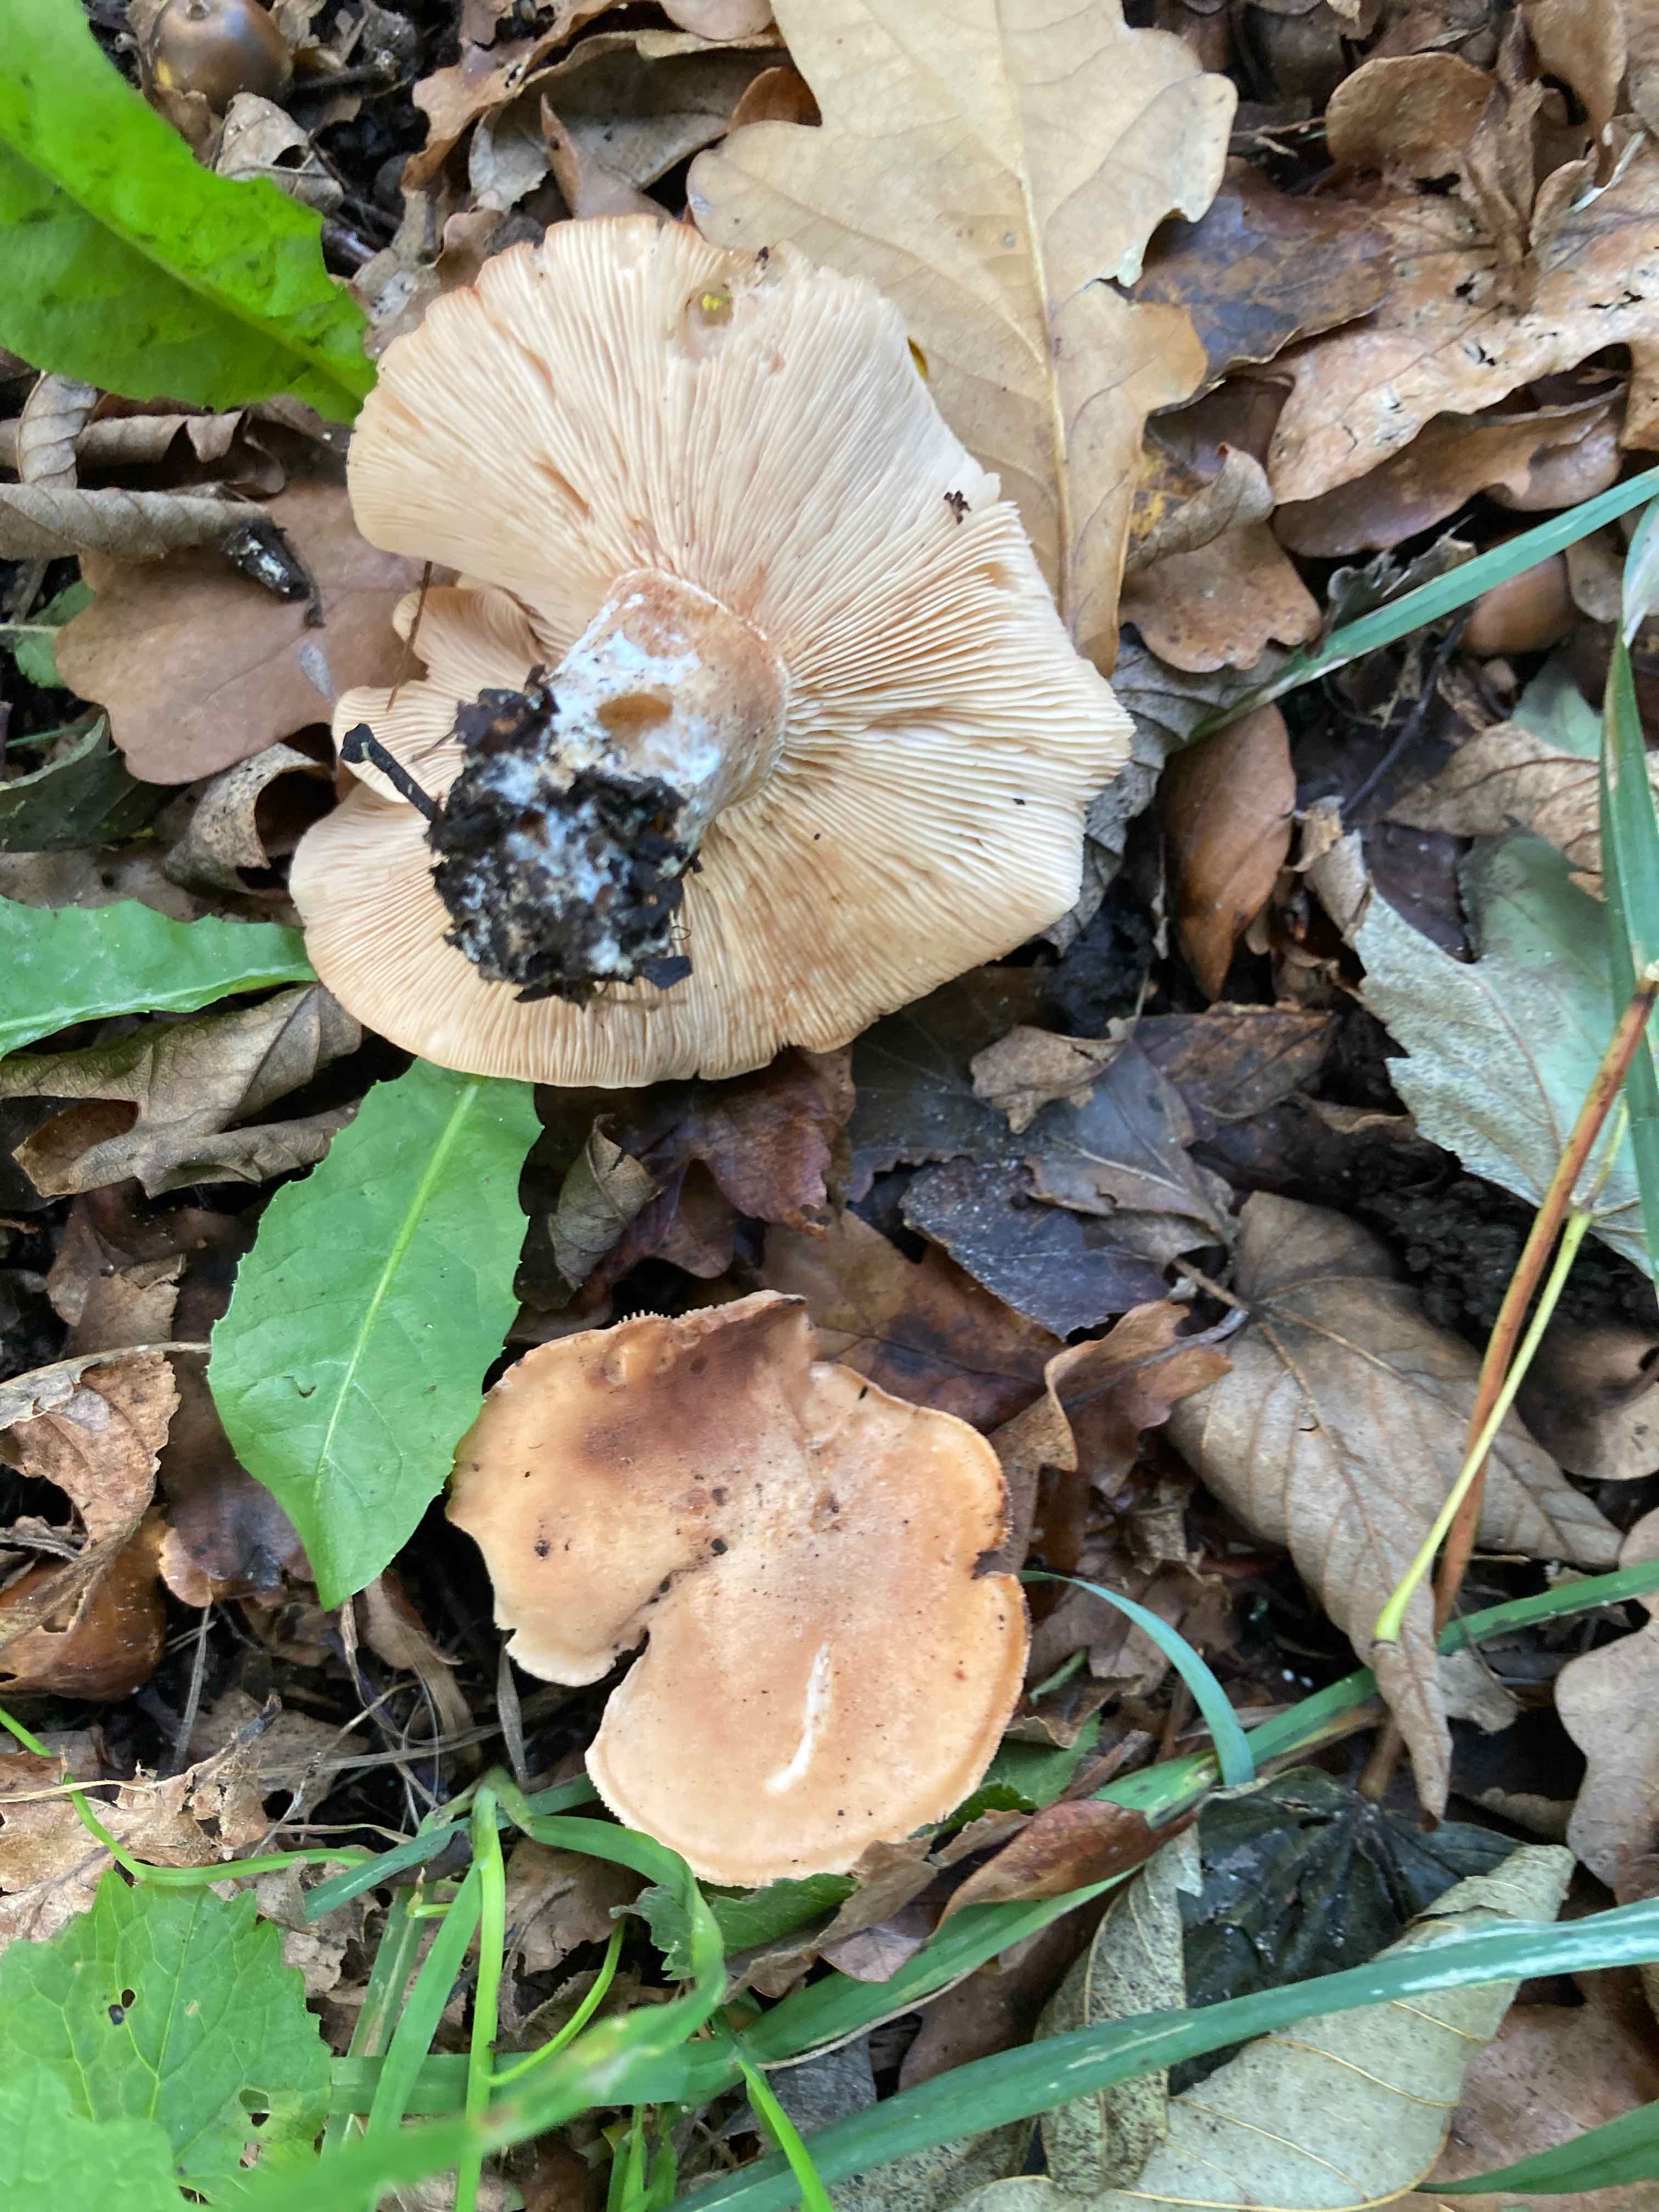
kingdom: Fungi
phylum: Basidiomycota
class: Agaricomycetes
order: Agaricales
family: Entolomataceae
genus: Clitopilus
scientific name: Clitopilus geminus
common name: kødfarvet troldhat
